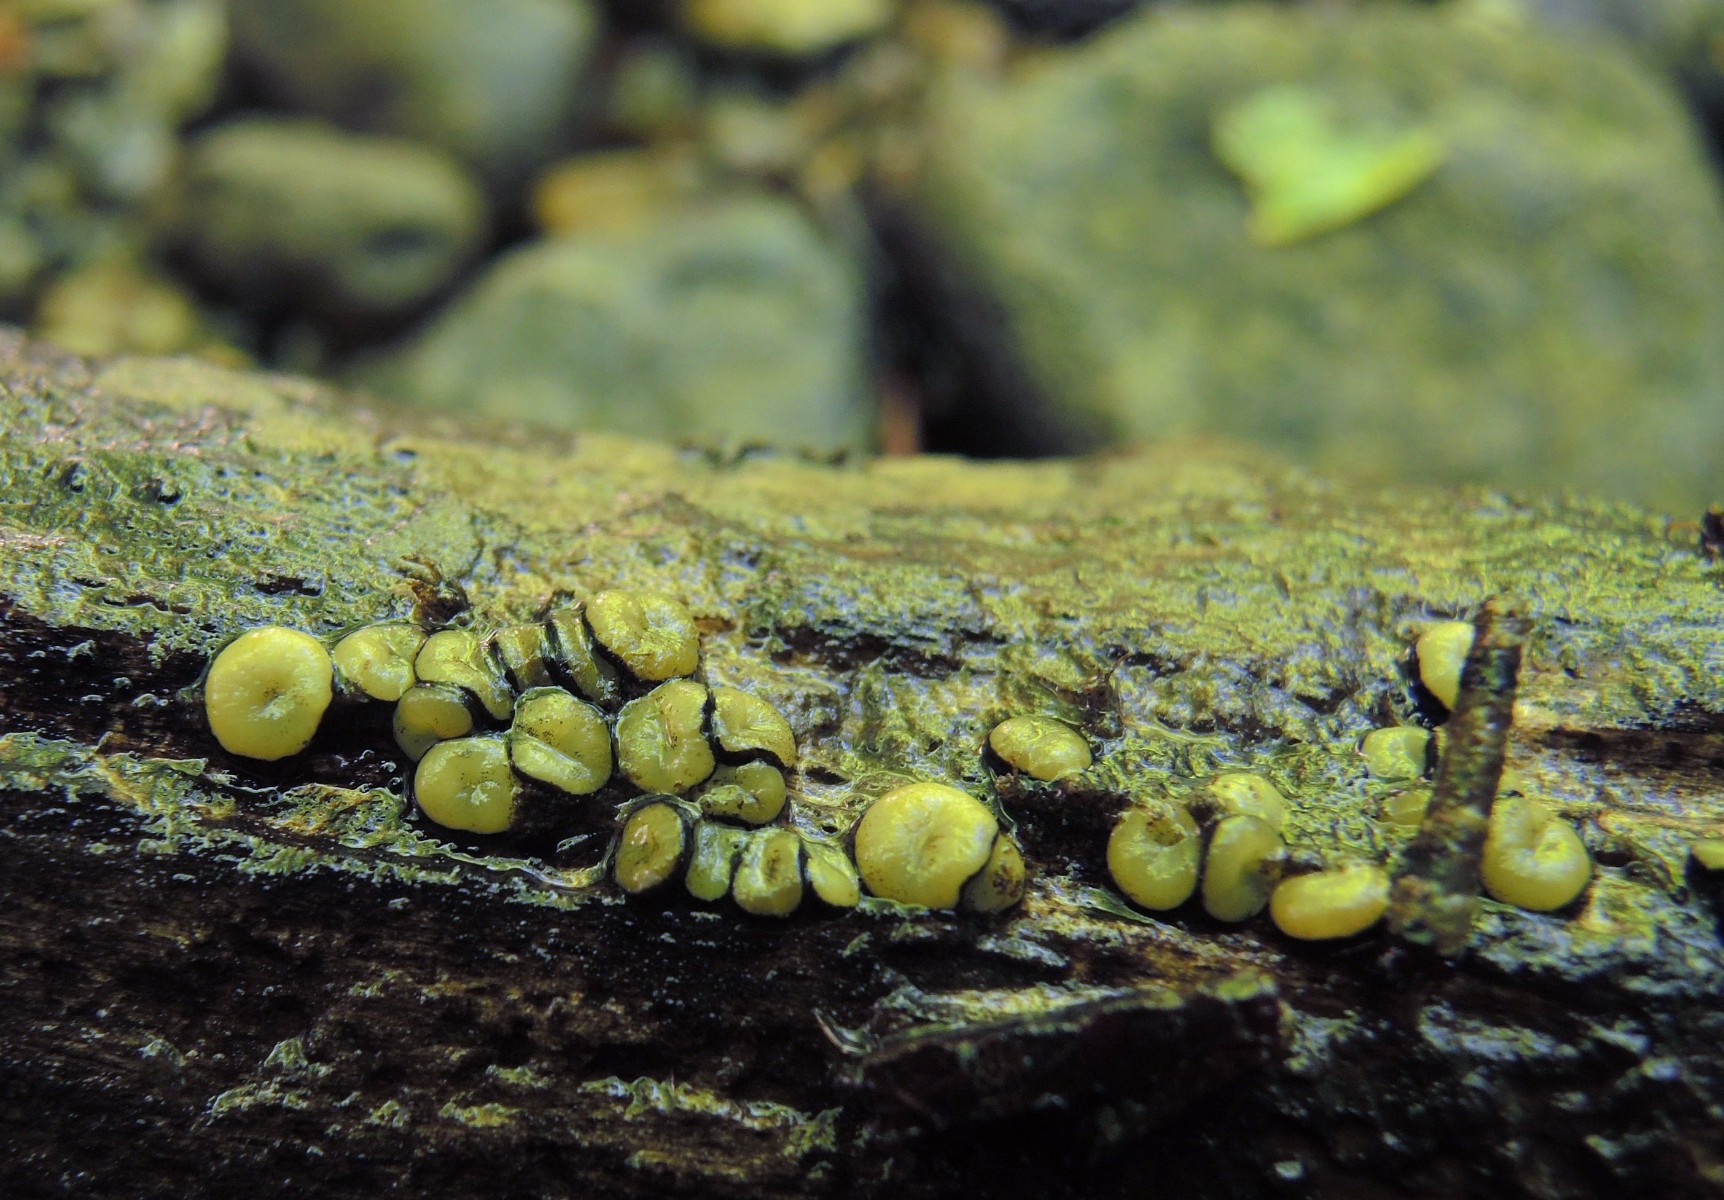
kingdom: Fungi
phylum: Ascomycota
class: Leotiomycetes
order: Helotiales
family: Vibrisseaceae
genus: Vibrissea
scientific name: Vibrissea flavovirens
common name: gulgrøn bækskive
